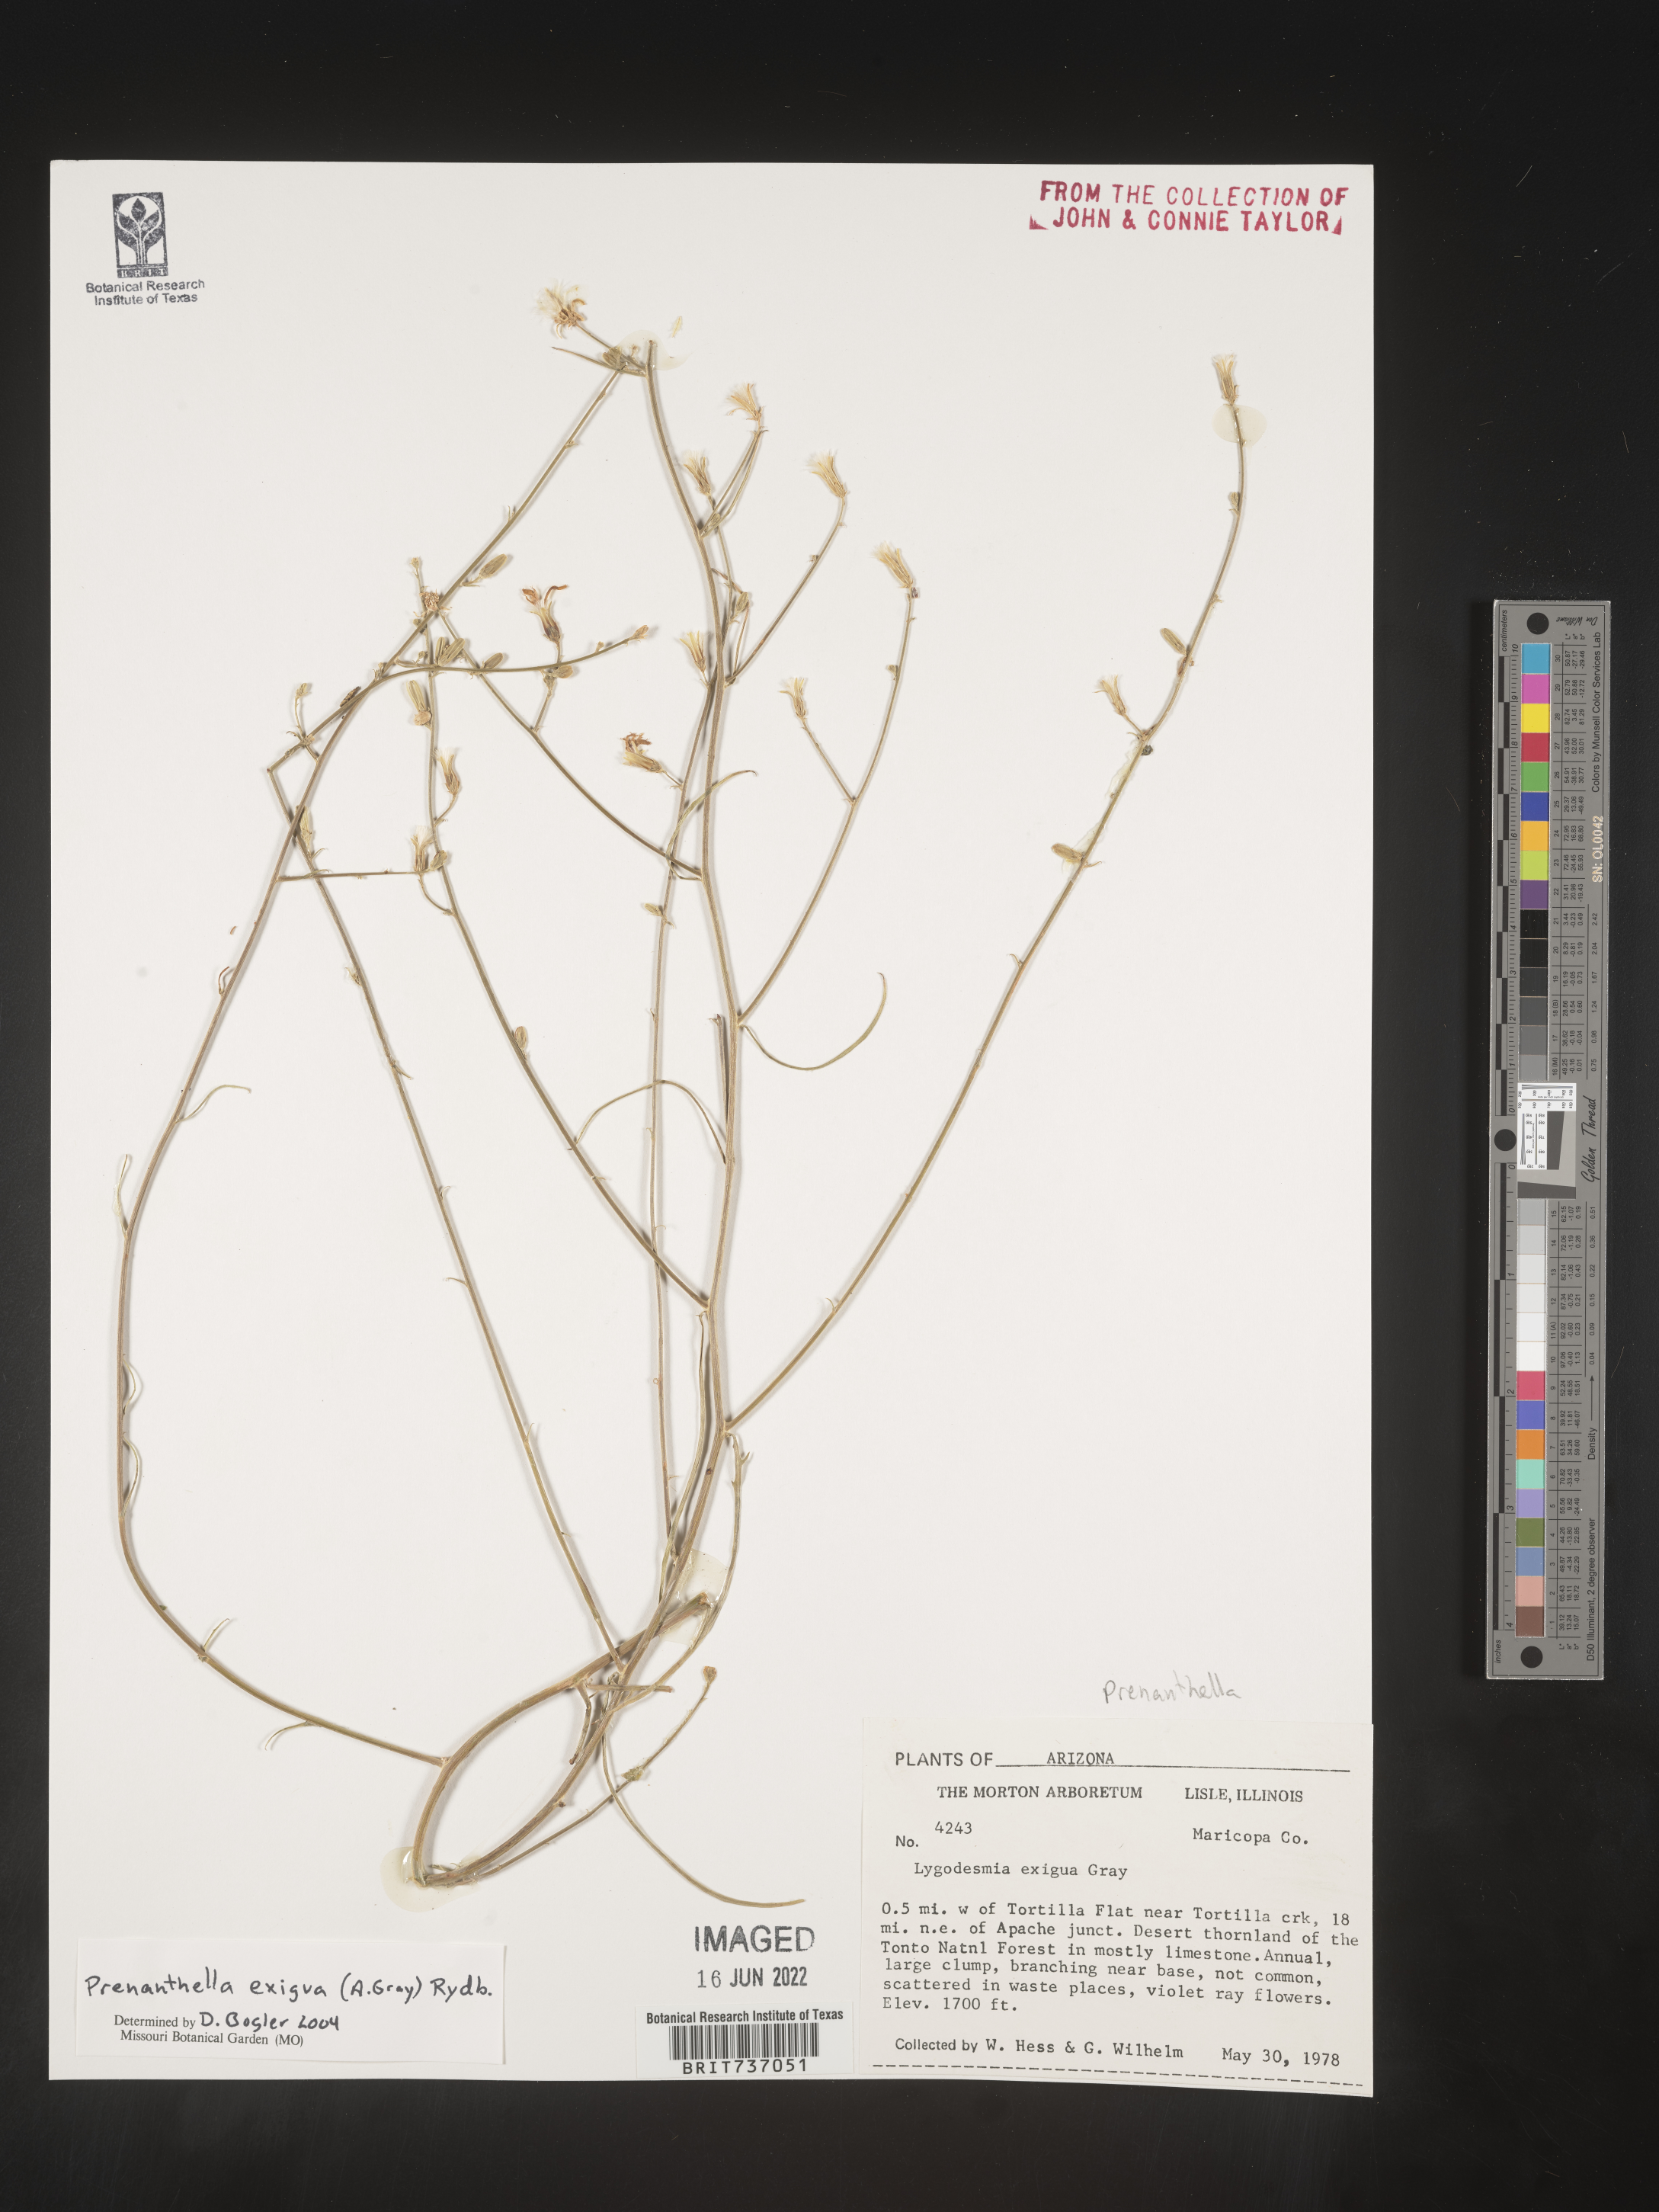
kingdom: Plantae
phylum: Tracheophyta
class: Magnoliopsida
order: Asterales
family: Asteraceae
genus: Lygodesmia
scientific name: Lygodesmia
